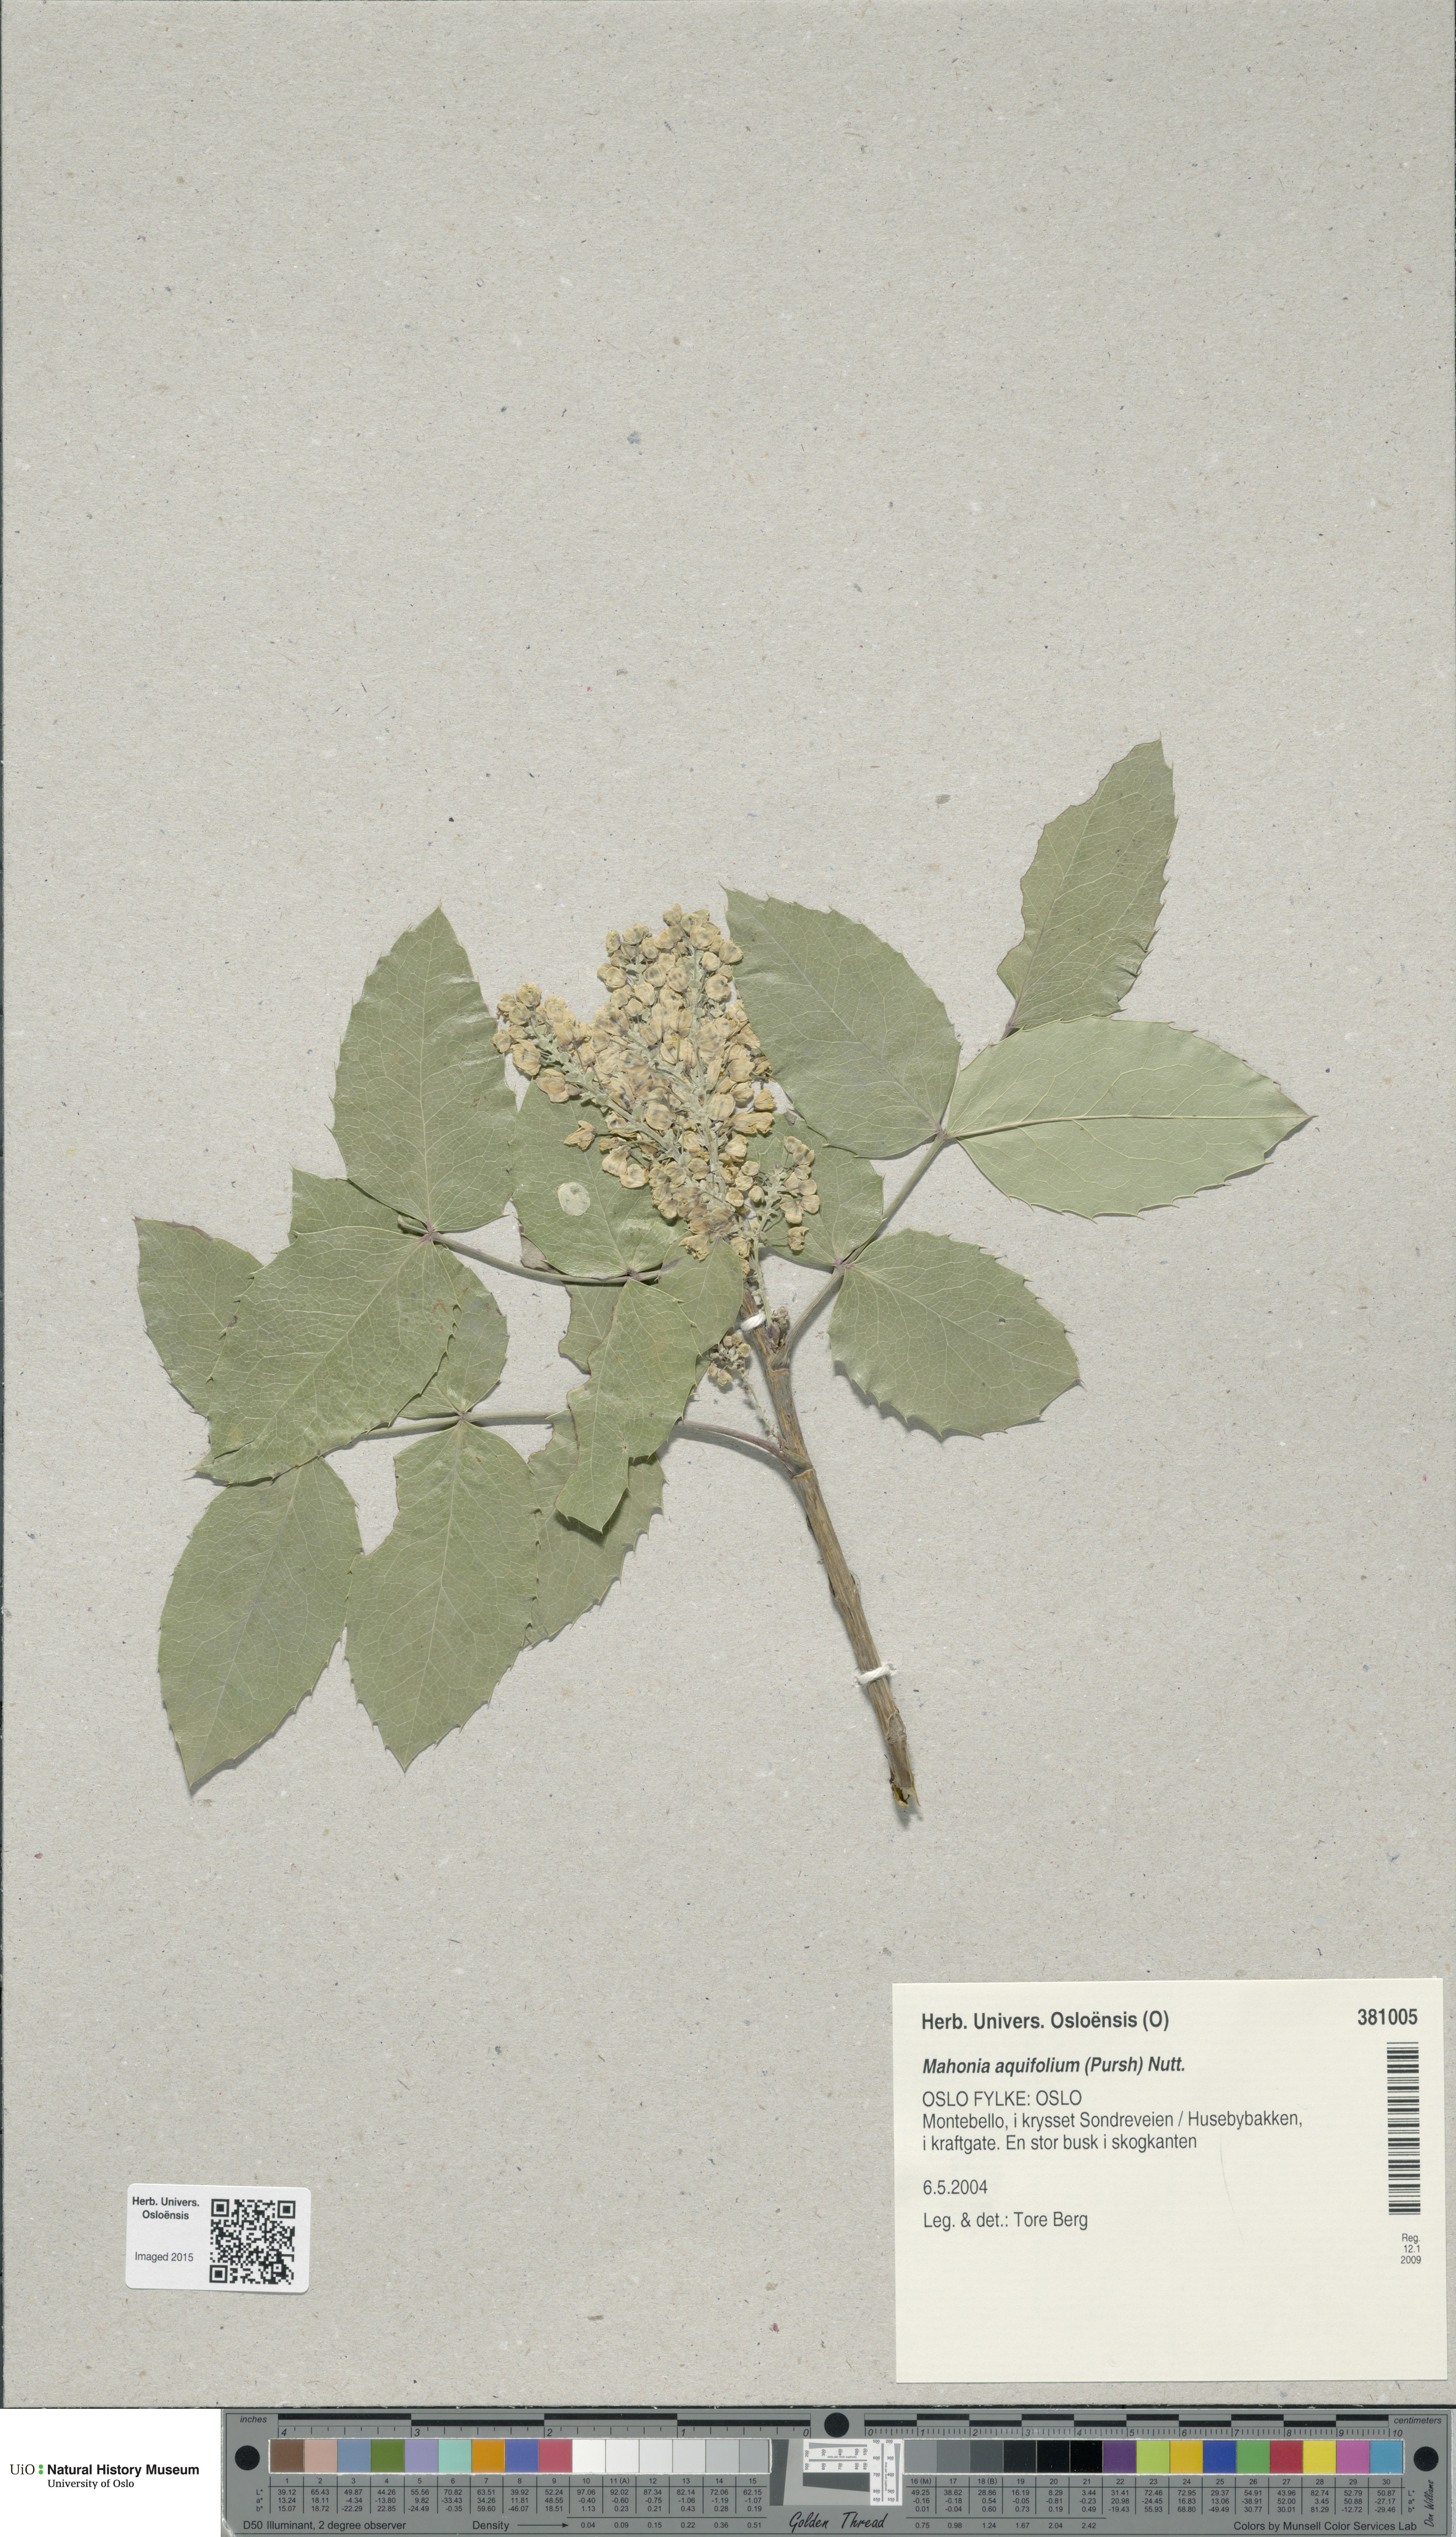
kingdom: Plantae
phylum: Tracheophyta
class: Magnoliopsida
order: Ranunculales
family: Berberidaceae
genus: Mahonia
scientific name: Mahonia aquifolium
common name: Oregon-grape
